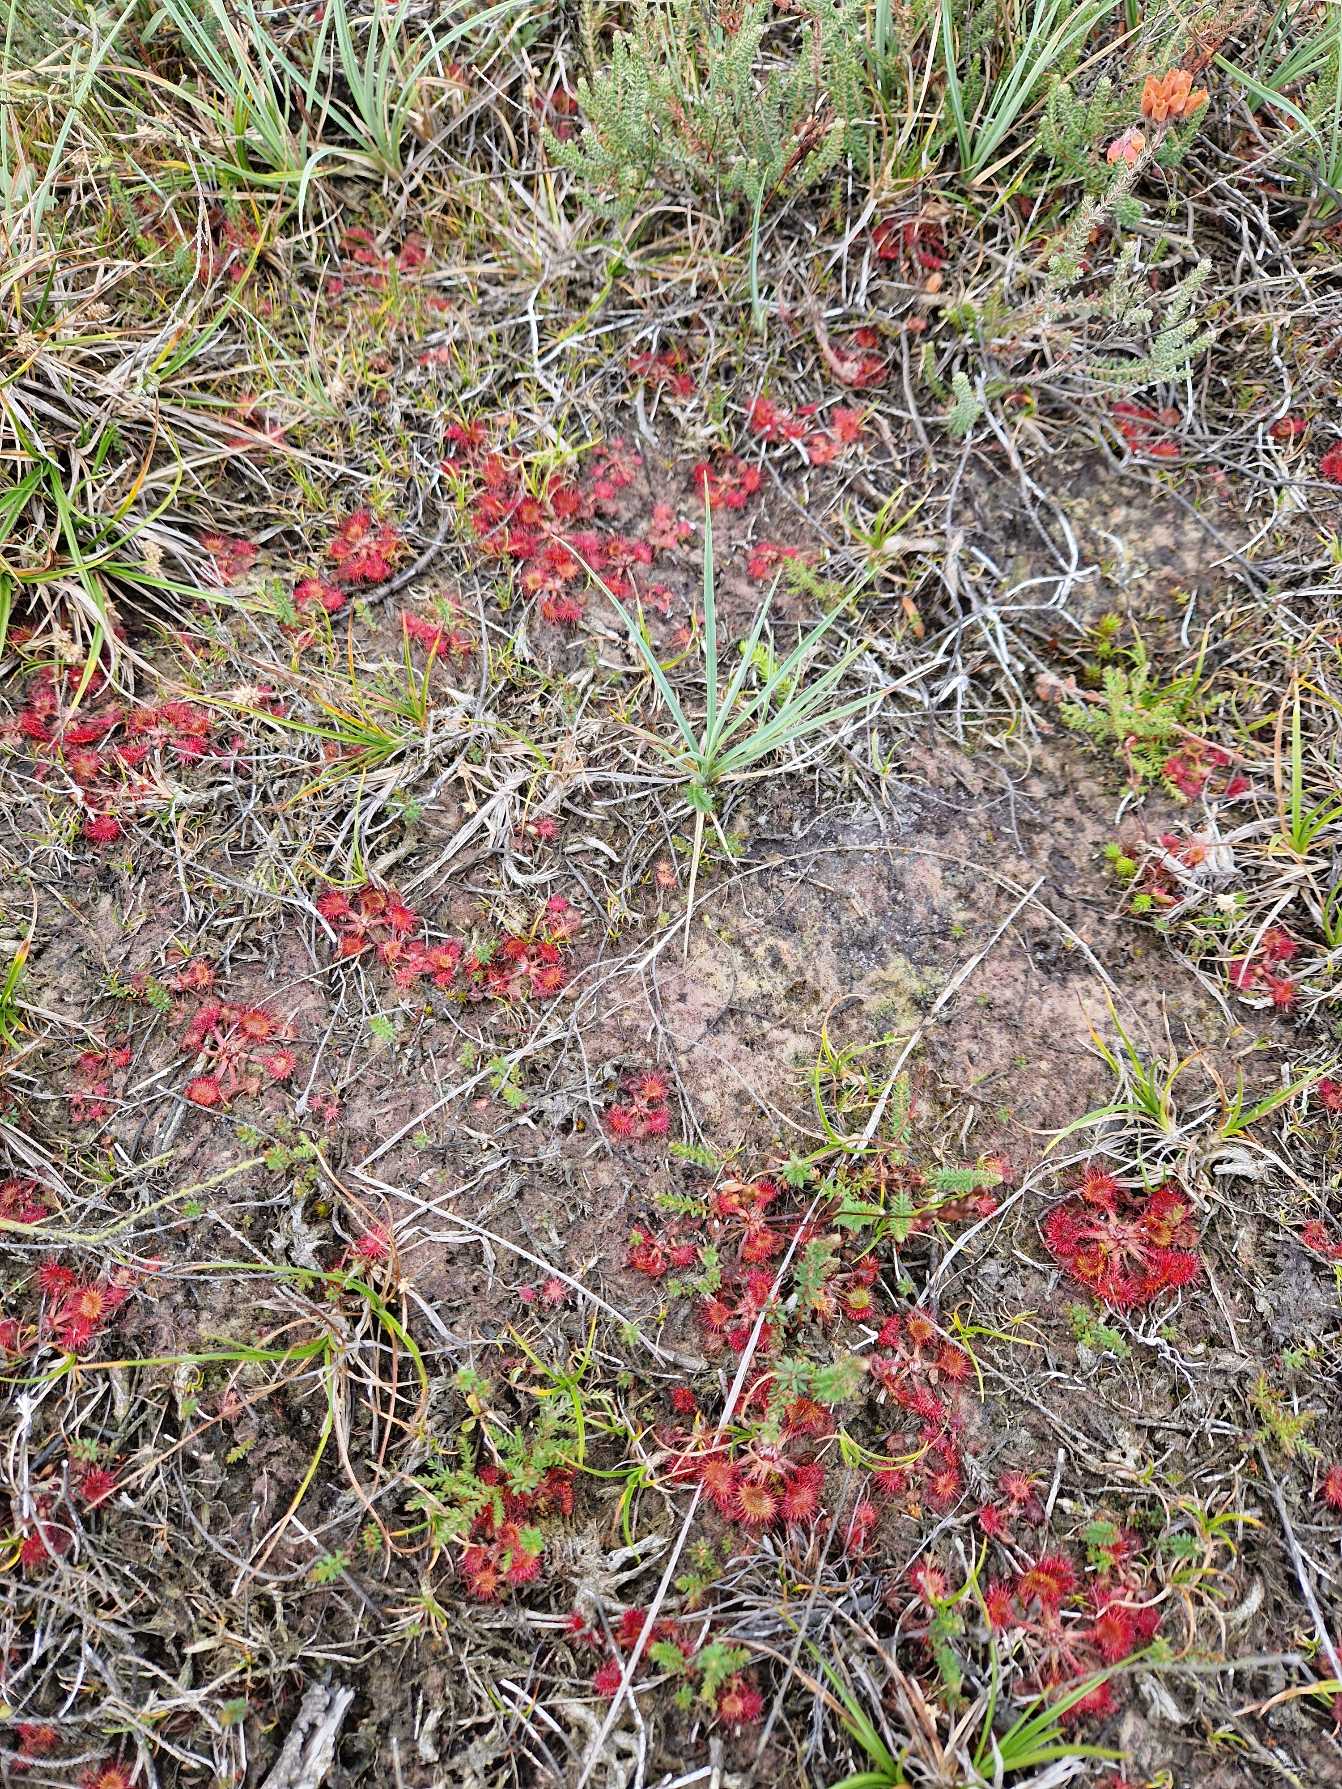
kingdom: Plantae
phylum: Tracheophyta
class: Magnoliopsida
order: Caryophyllales
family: Droseraceae
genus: Drosera
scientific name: Drosera rotundifolia
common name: Rundbladet soldug
